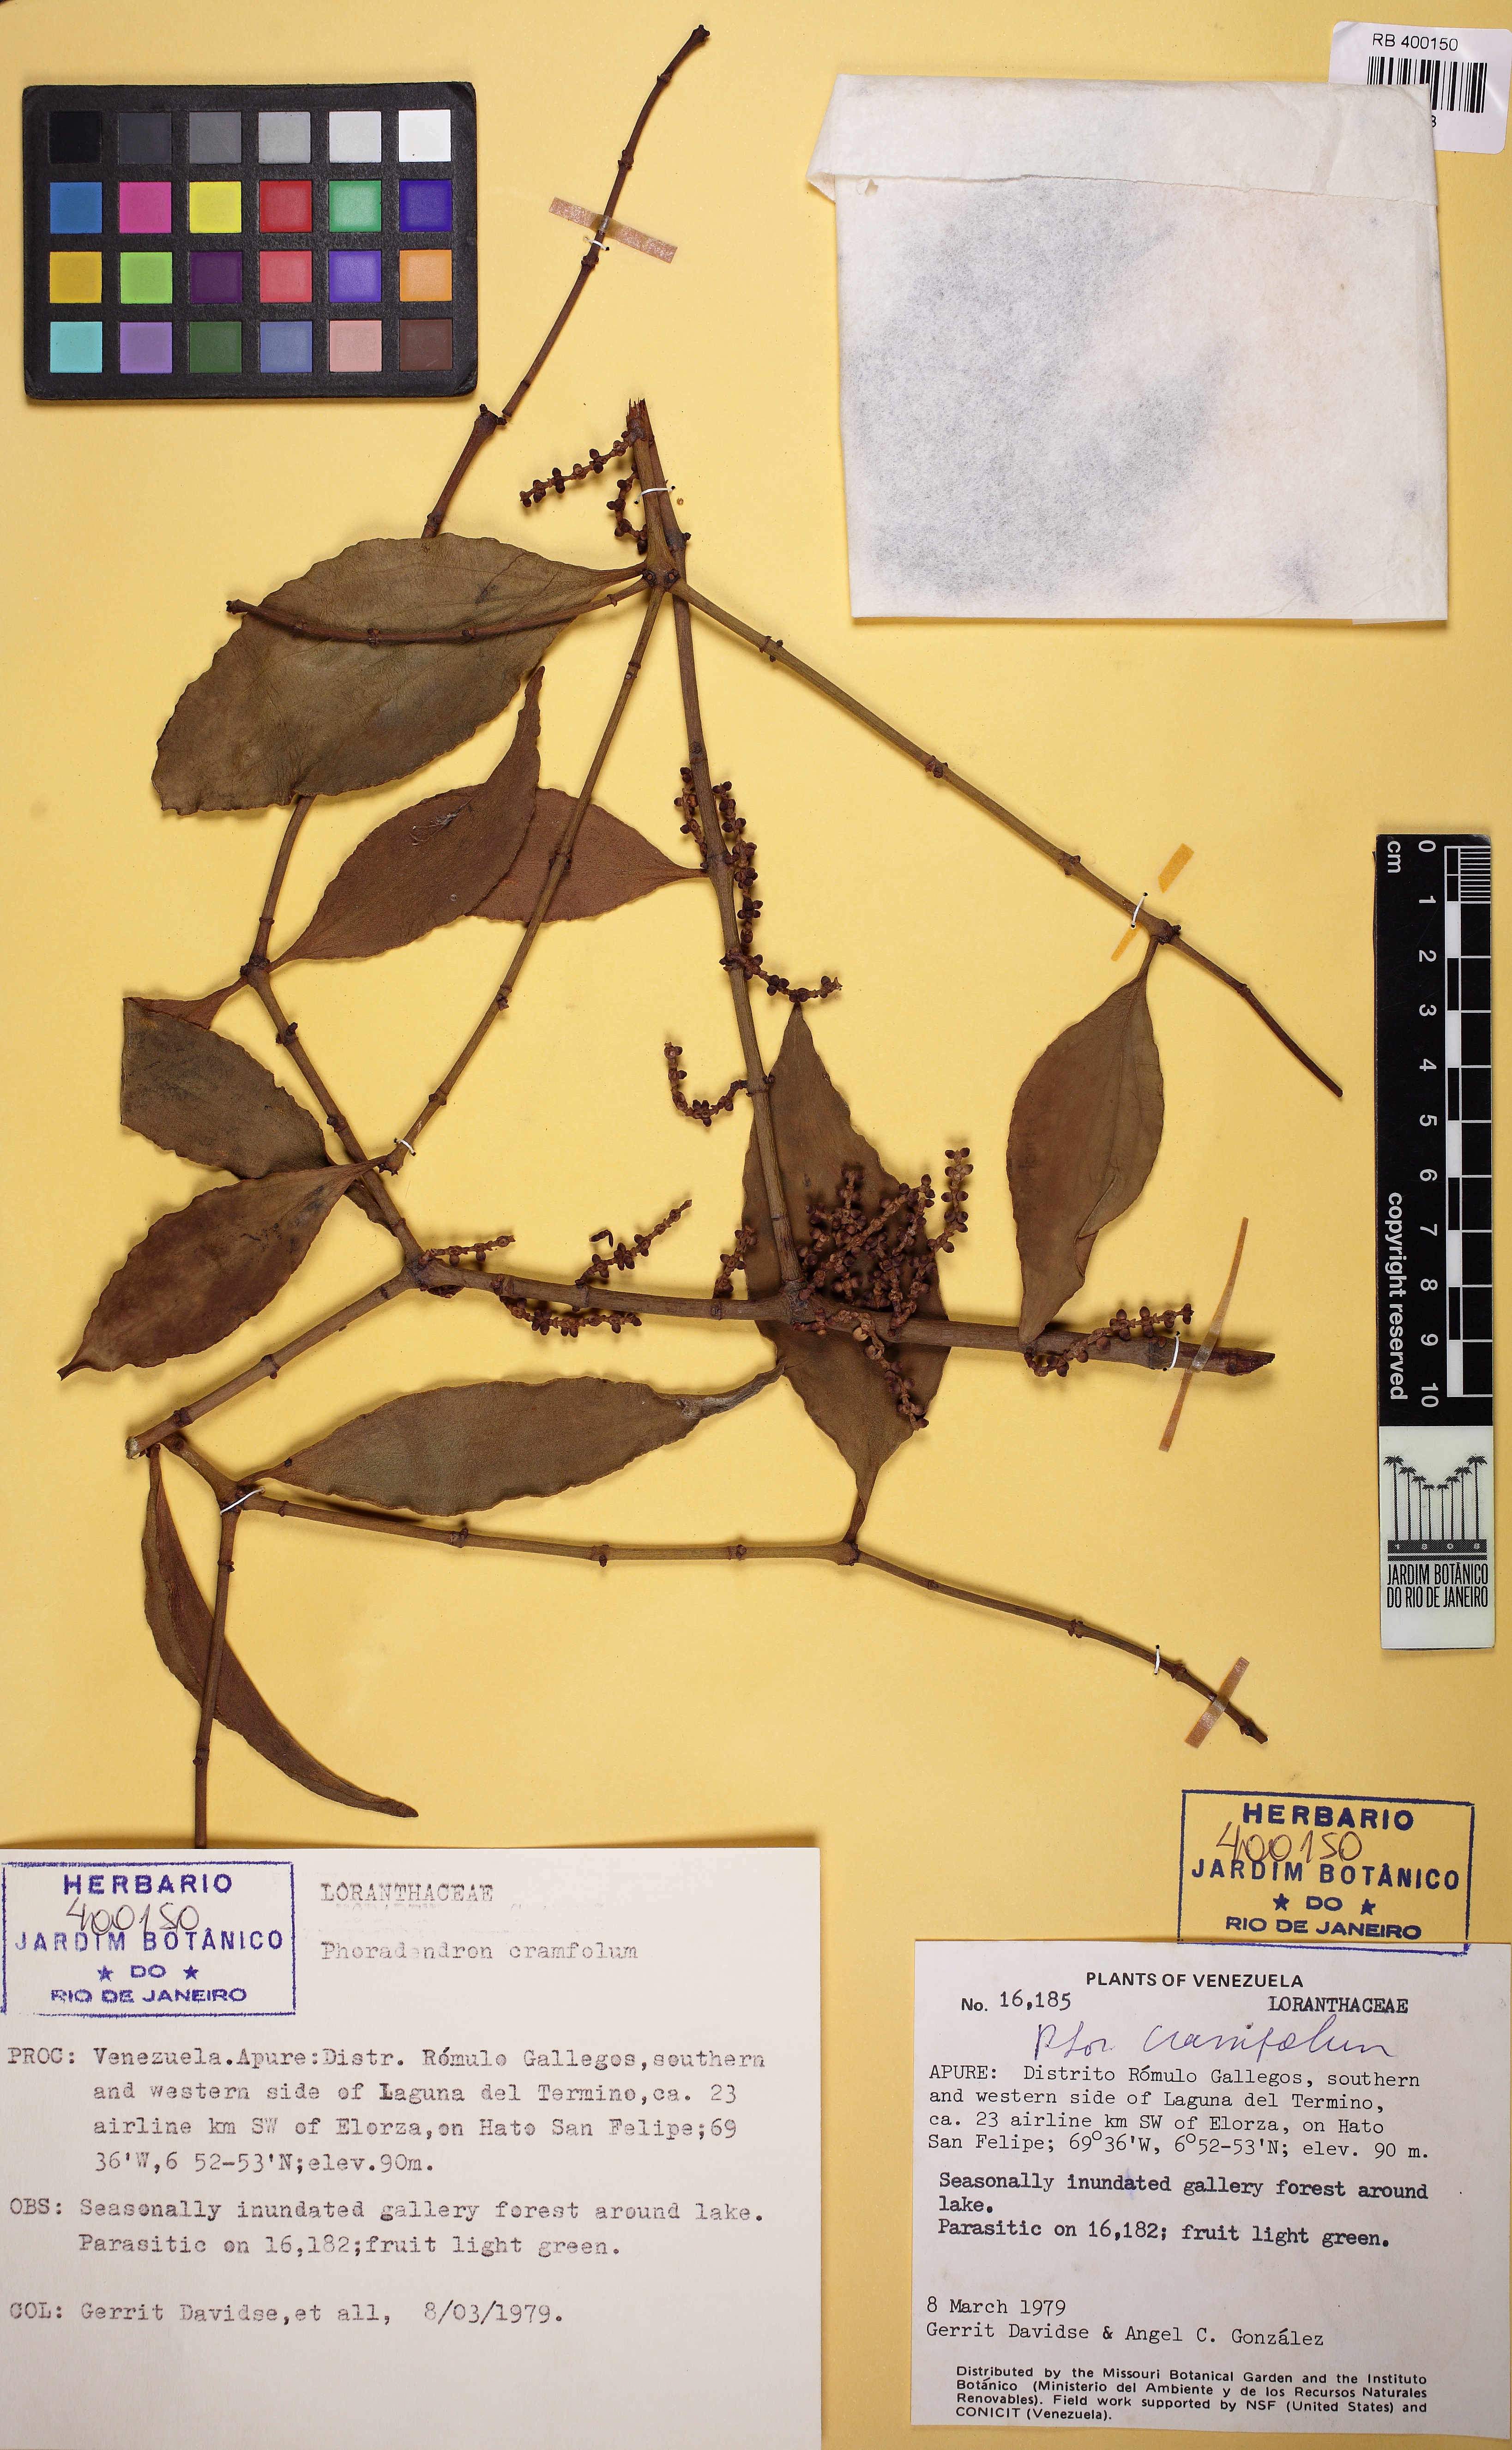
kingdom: Plantae
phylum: Tracheophyta
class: Magnoliopsida
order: Santalales
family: Viscaceae
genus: Phoradendron
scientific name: Phoradendron crassifolium
